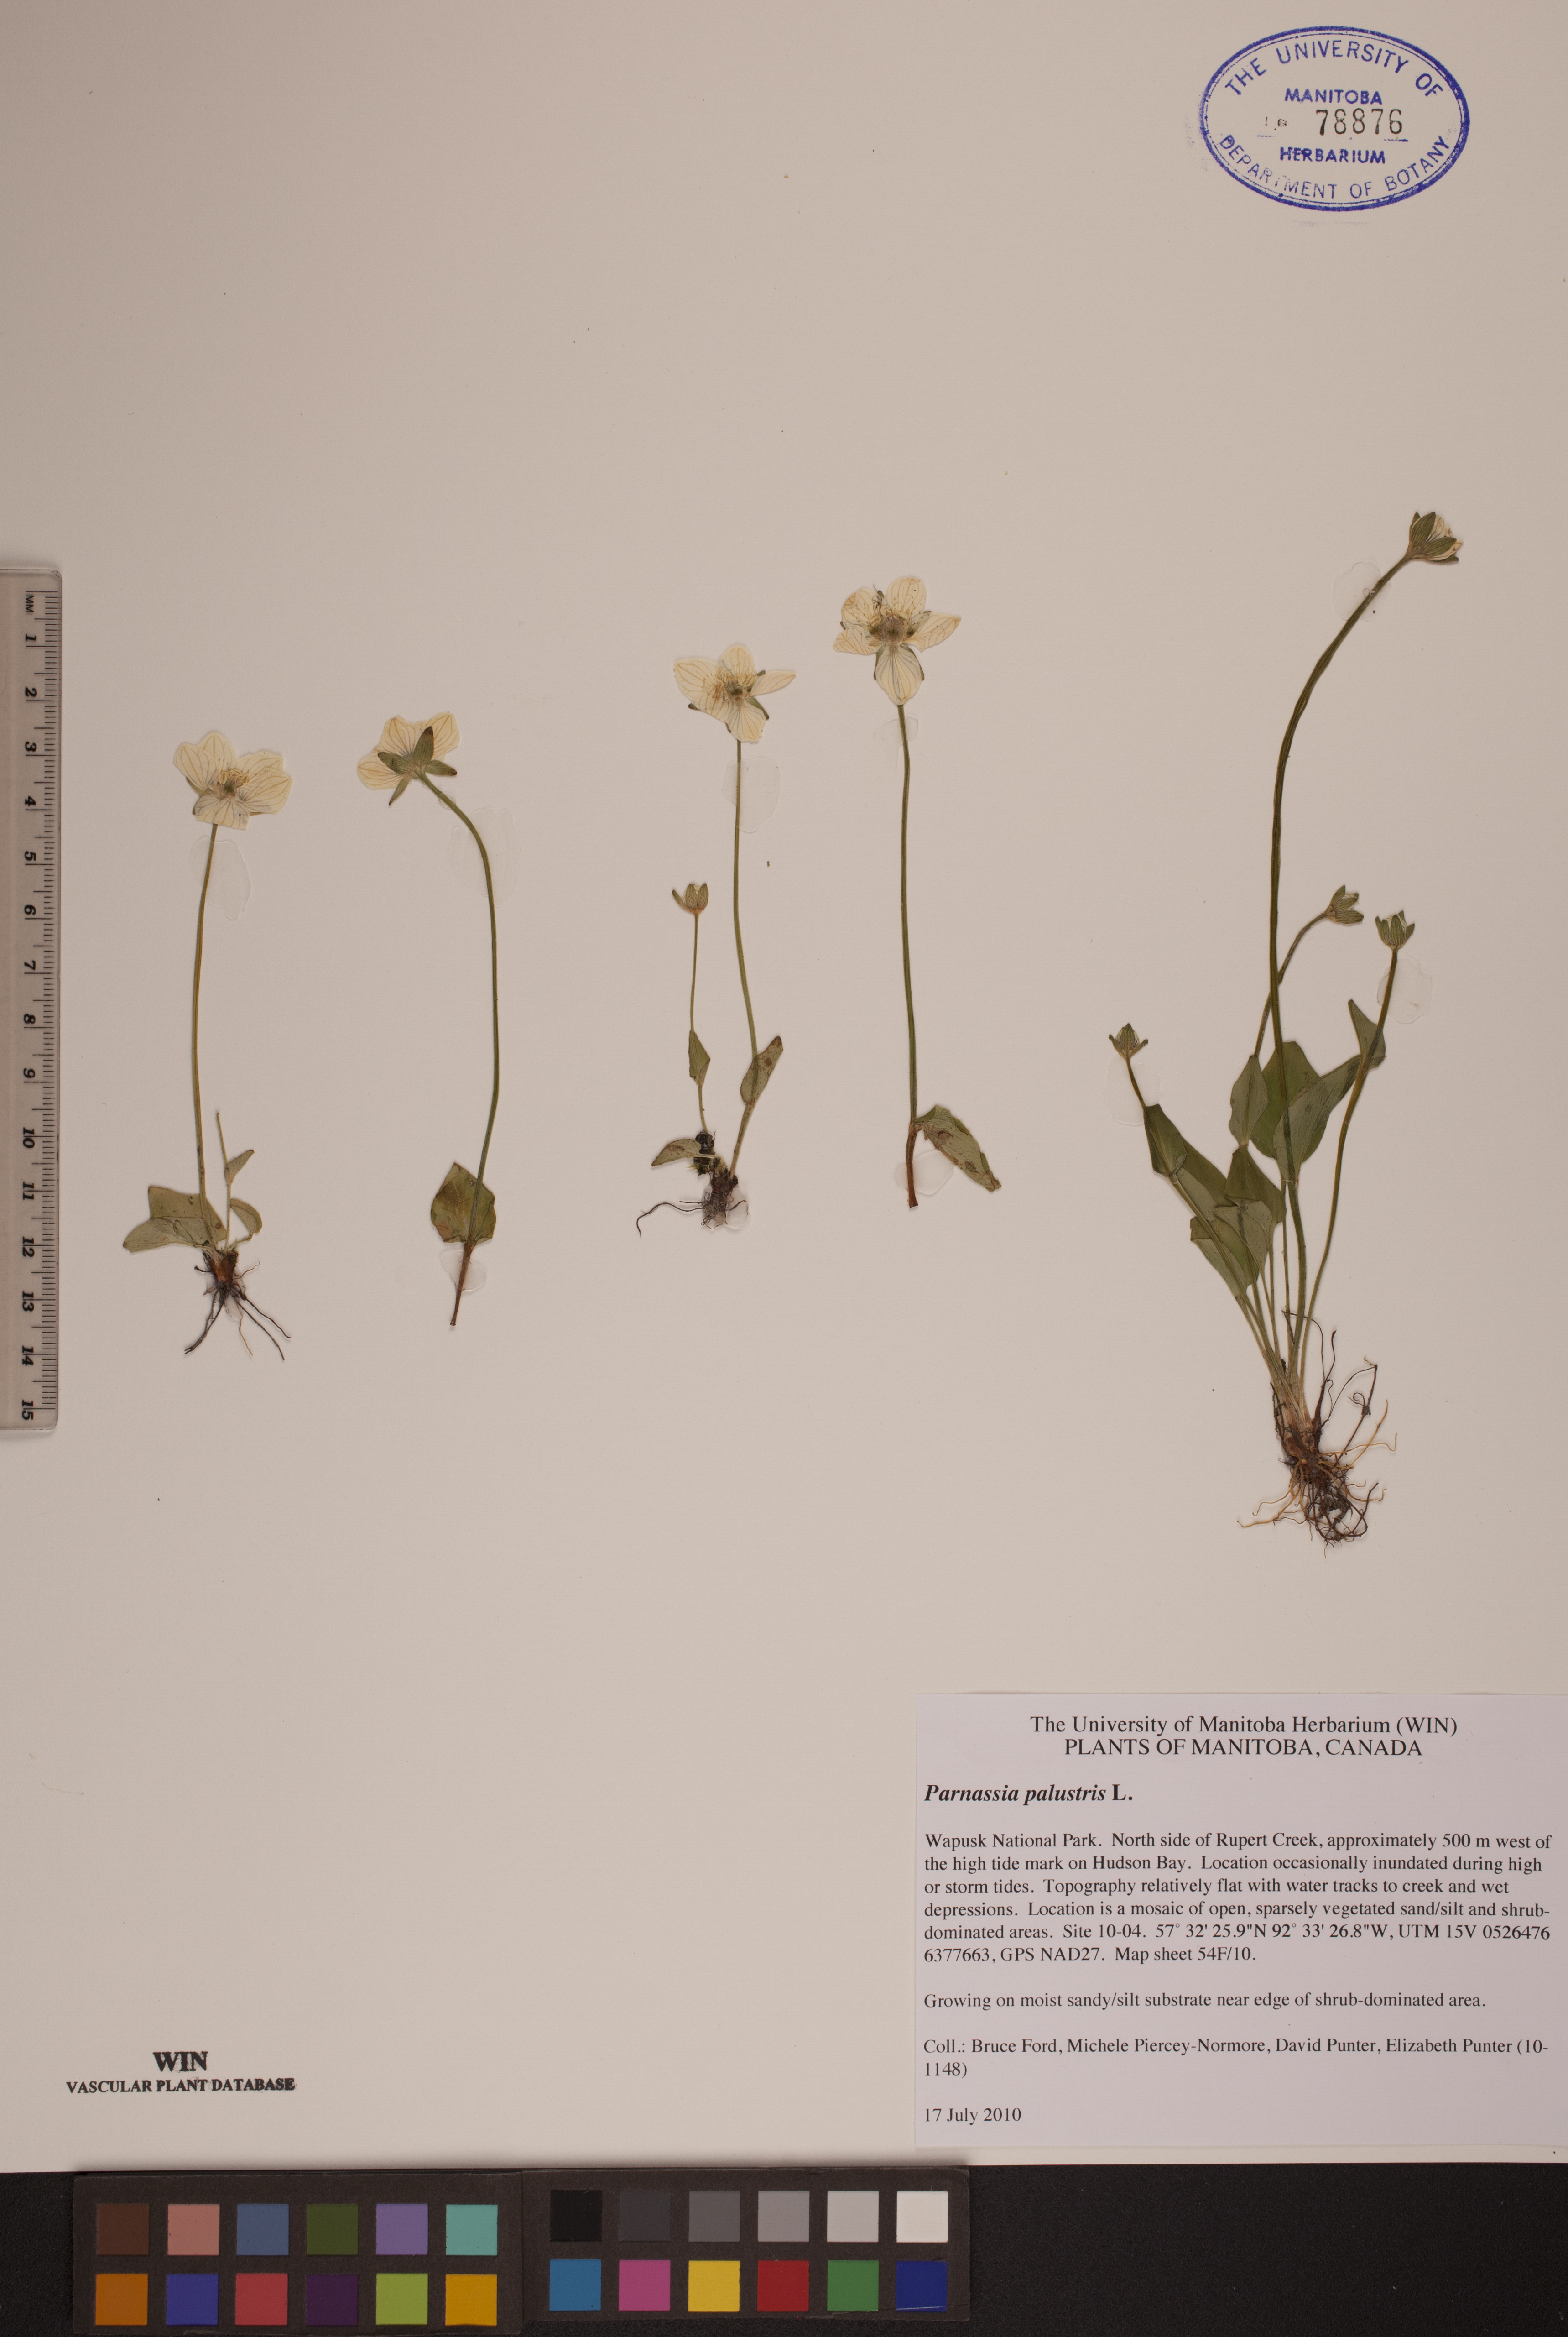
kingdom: Plantae
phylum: Tracheophyta
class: Magnoliopsida
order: Celastrales
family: Parnassiaceae
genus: Parnassia
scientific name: Parnassia palustris
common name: Grass-of-parnassus
